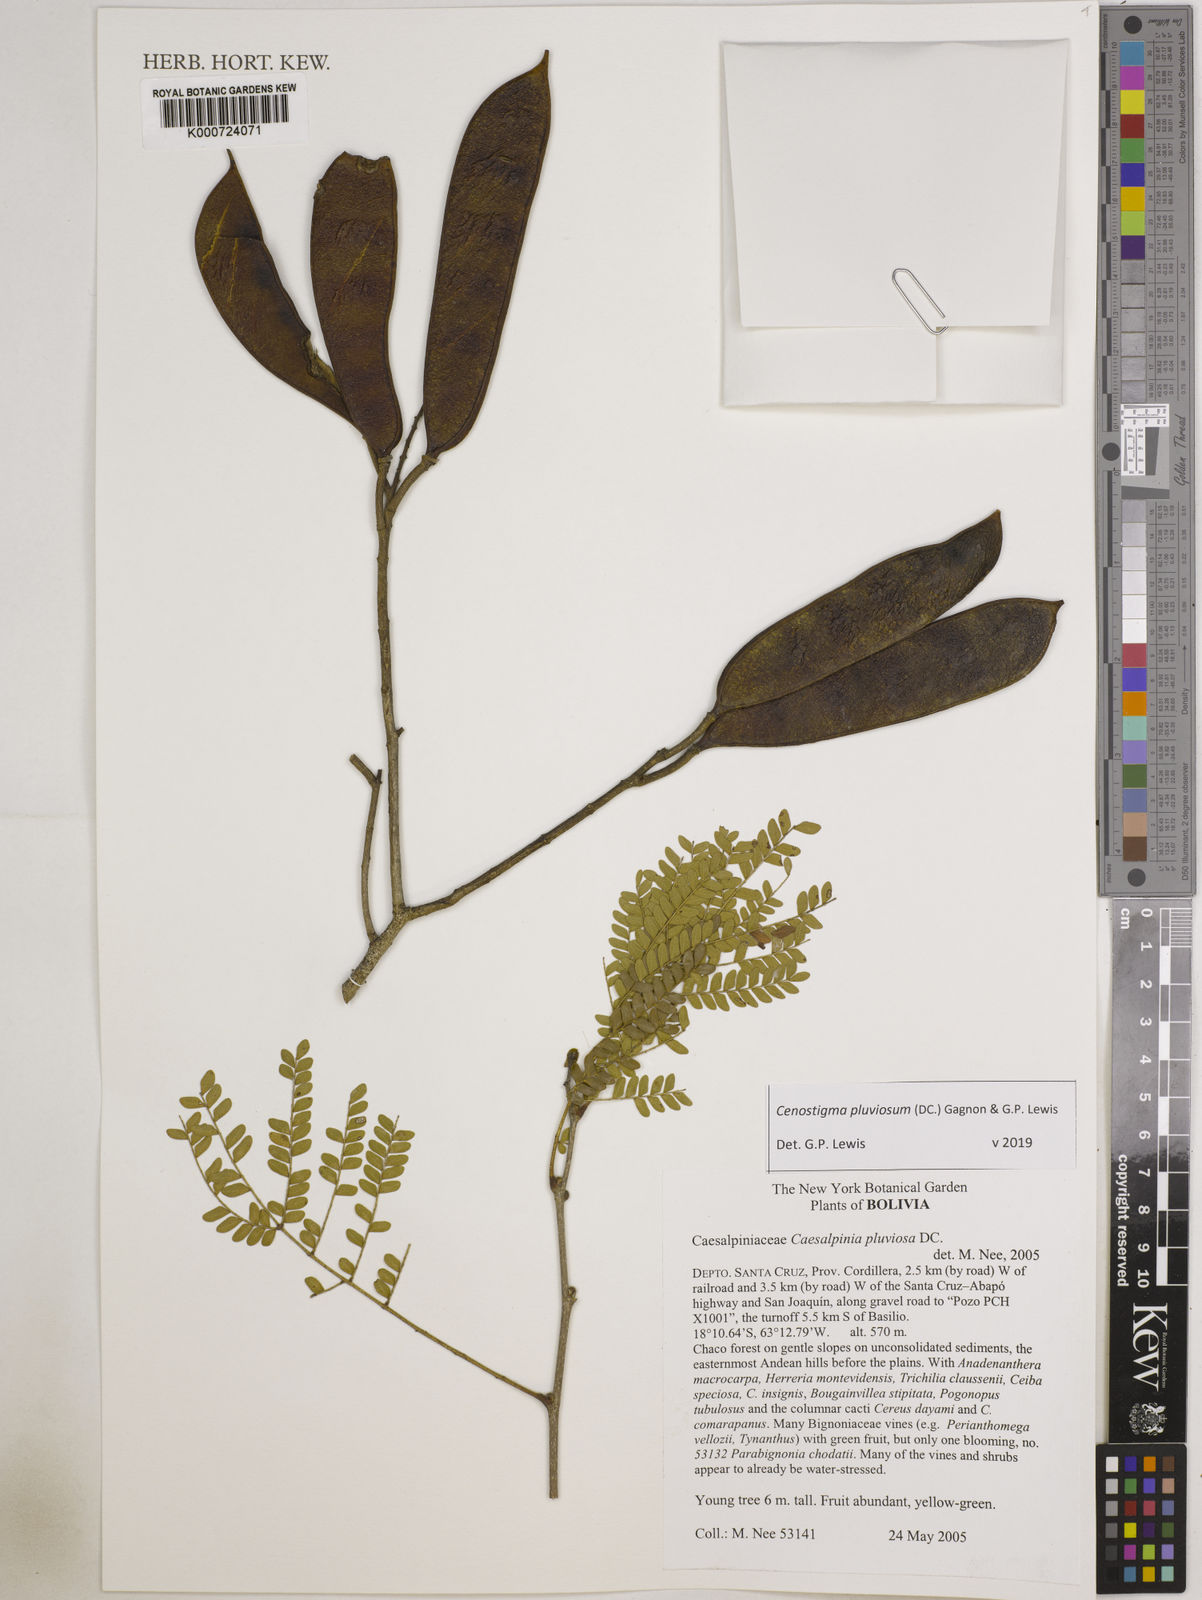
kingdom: Plantae
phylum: Tracheophyta
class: Magnoliopsida
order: Fabales
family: Fabaceae
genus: Cenostigma
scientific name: Cenostigma pluviosum
